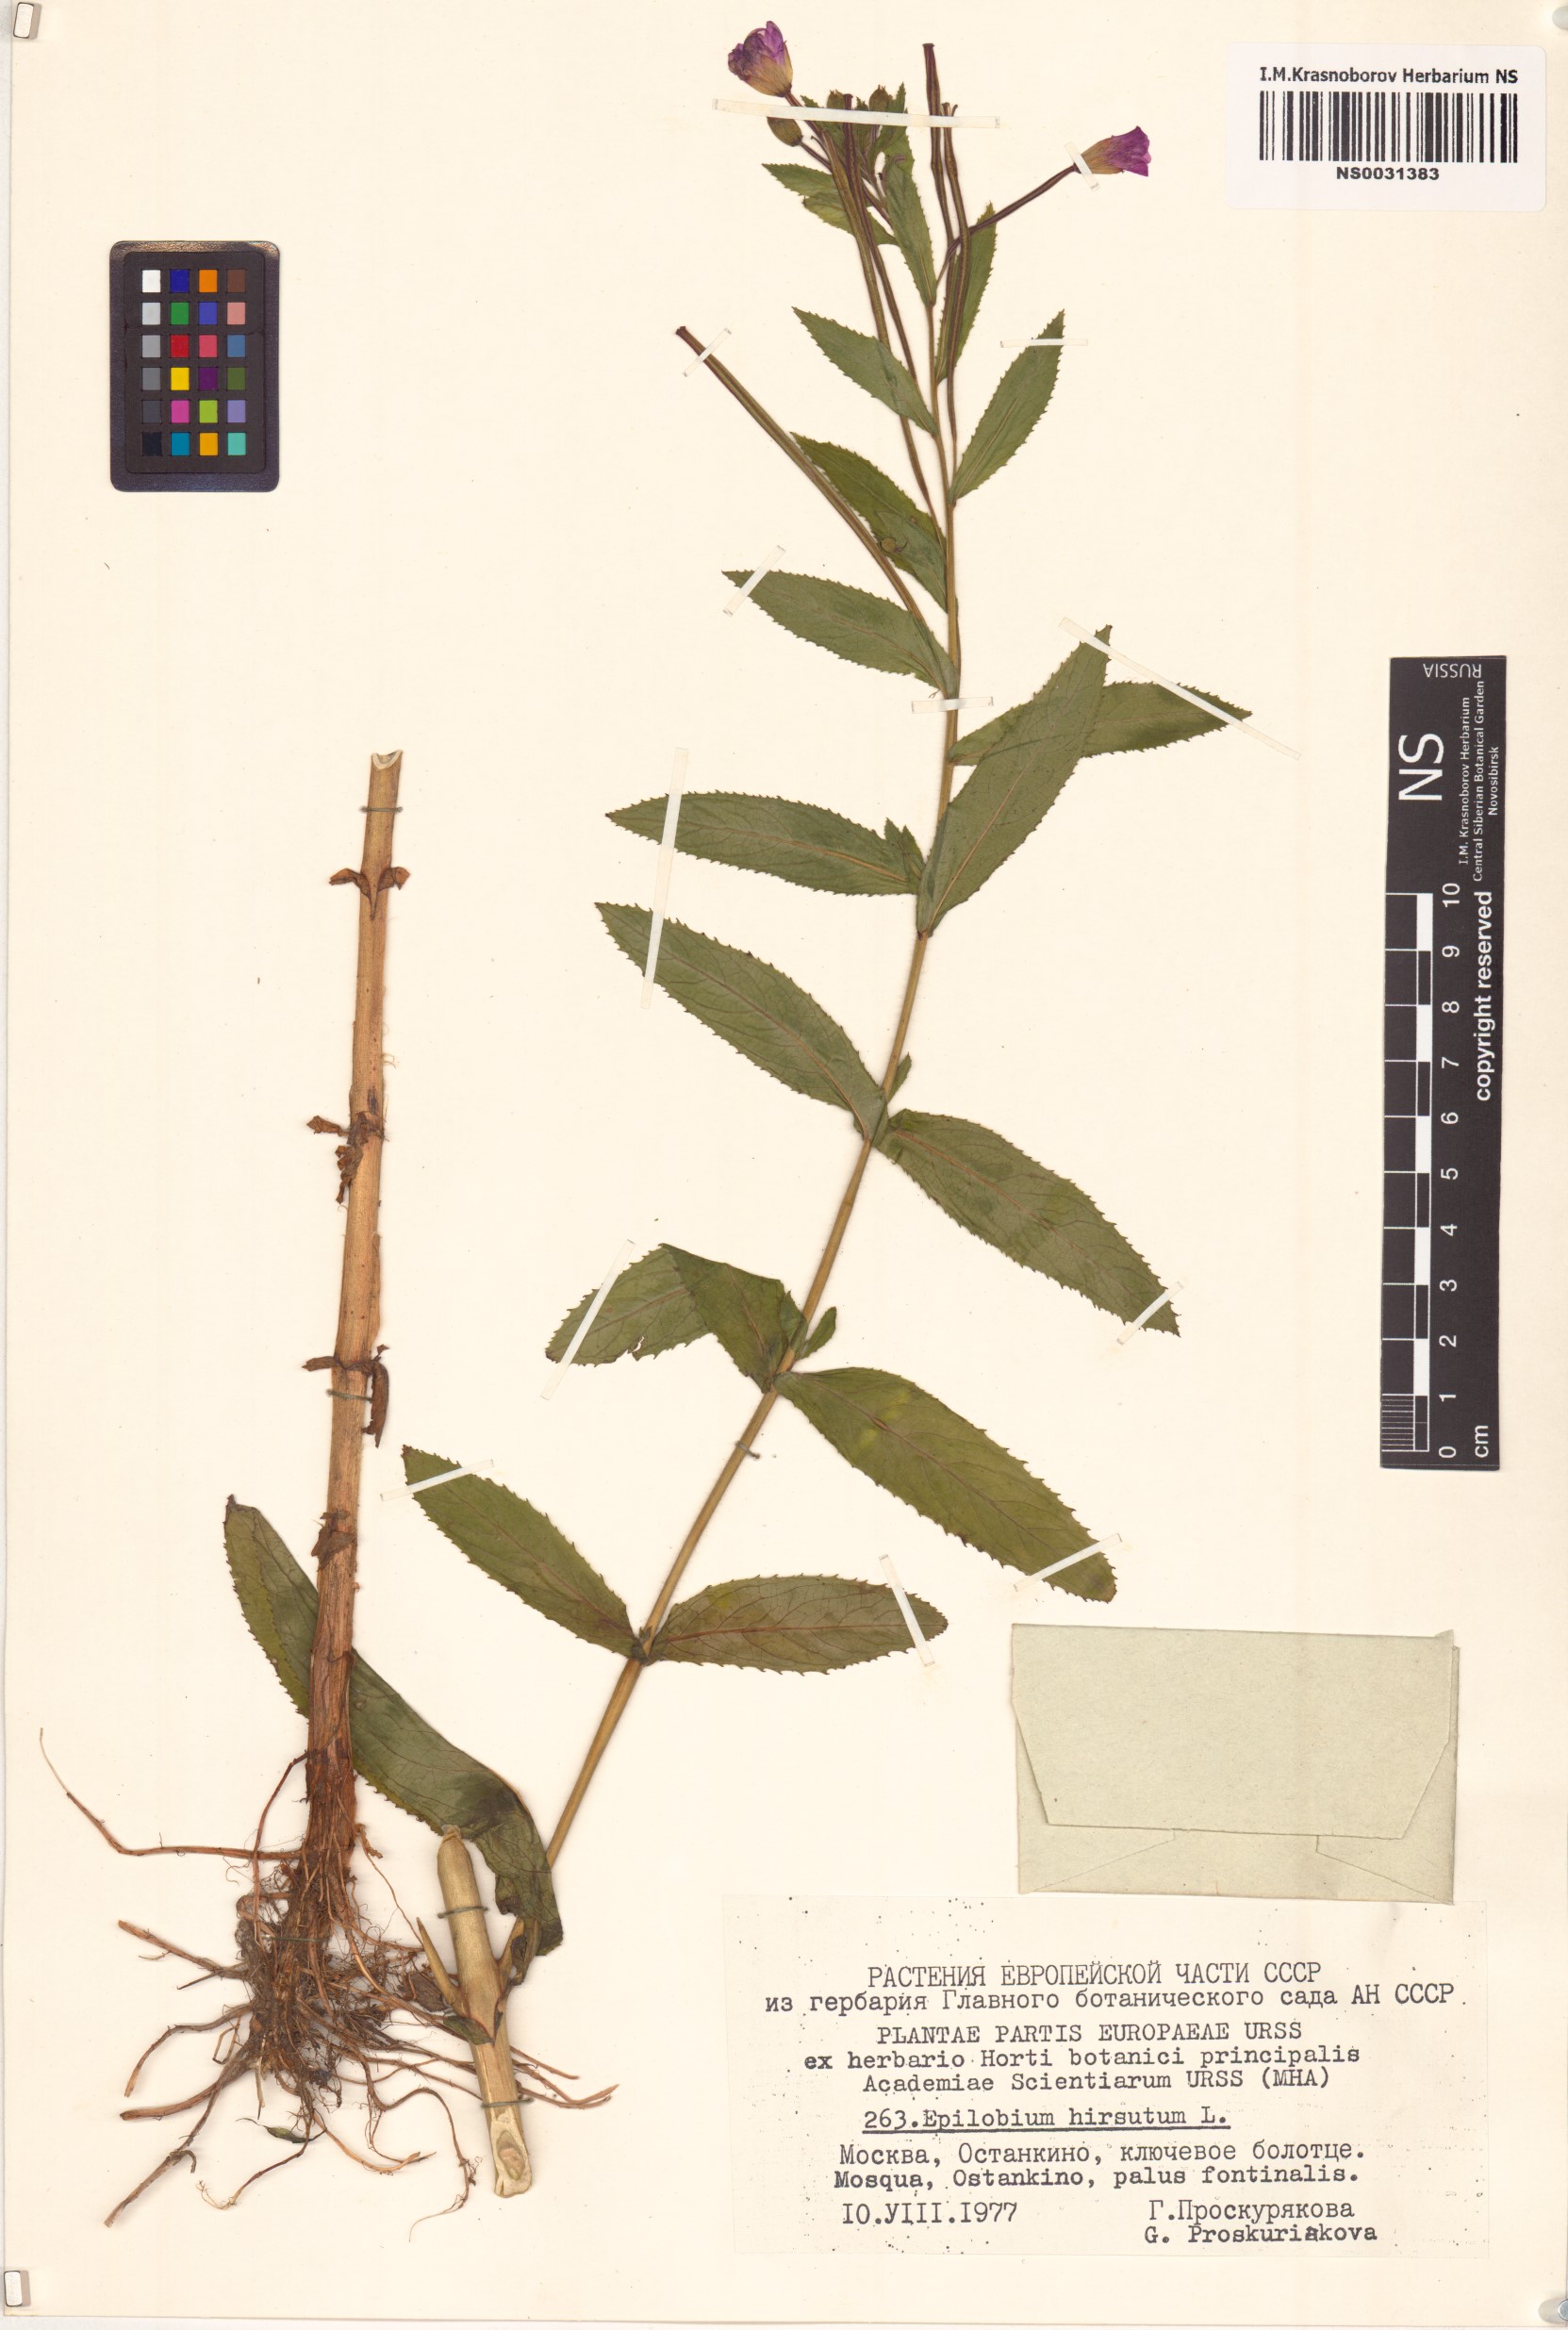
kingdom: Plantae
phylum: Tracheophyta
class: Magnoliopsida
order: Myrtales
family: Onagraceae
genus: Epilobium
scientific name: Epilobium hirsutum
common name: Great willowherb
